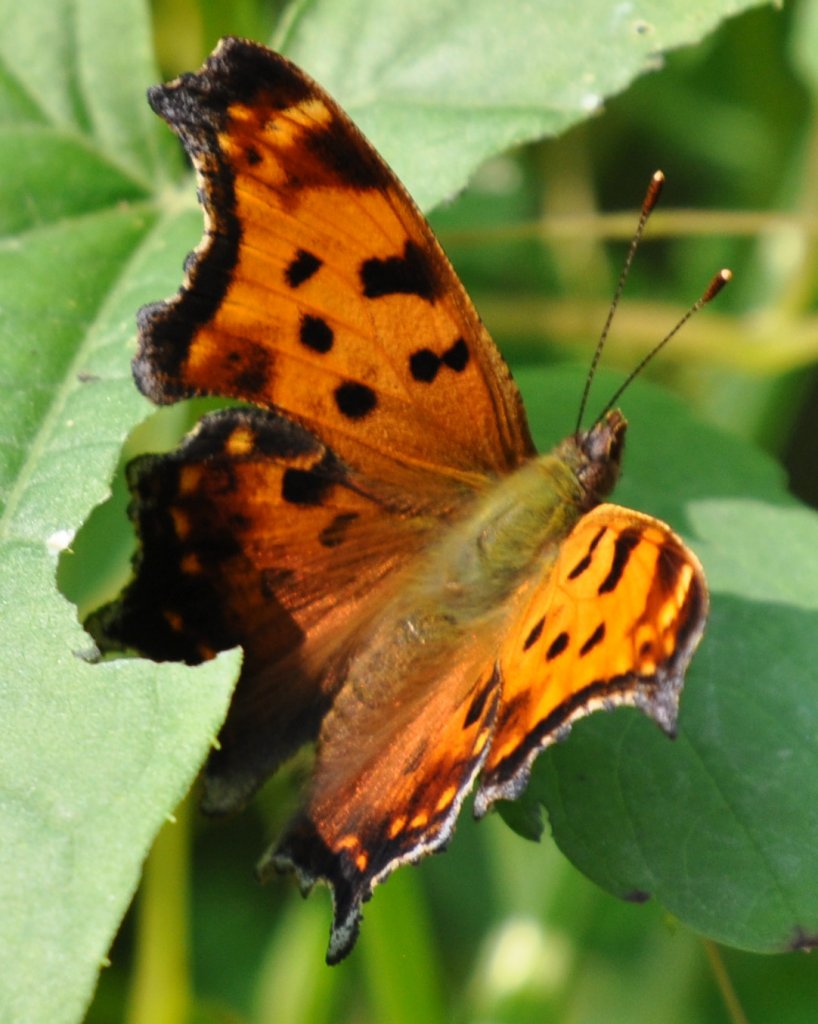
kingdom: Animalia
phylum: Arthropoda
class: Insecta
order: Lepidoptera
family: Nymphalidae
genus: Polygonia
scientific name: Polygonia comma
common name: Eastern Comma
